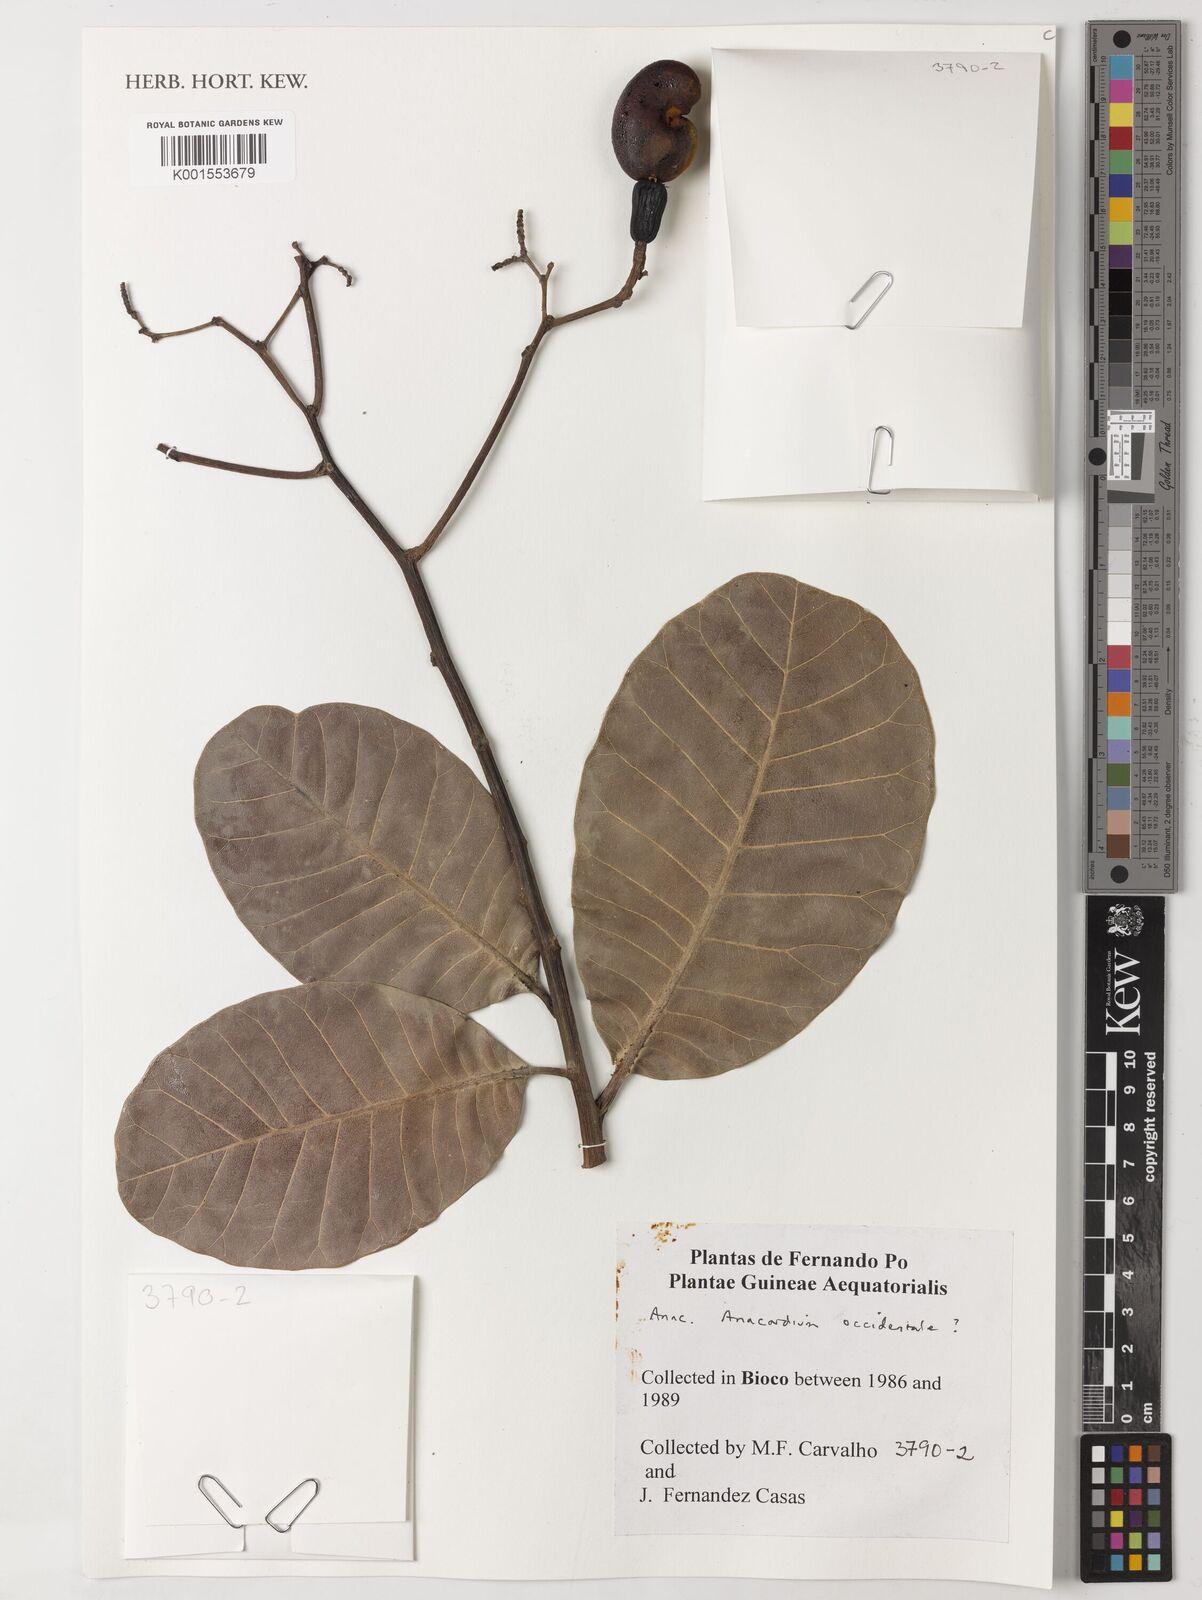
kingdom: Plantae
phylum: Tracheophyta
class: Magnoliopsida
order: Sapindales
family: Anacardiaceae
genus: Anacardium
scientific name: Anacardium occidentale
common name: Cashew
